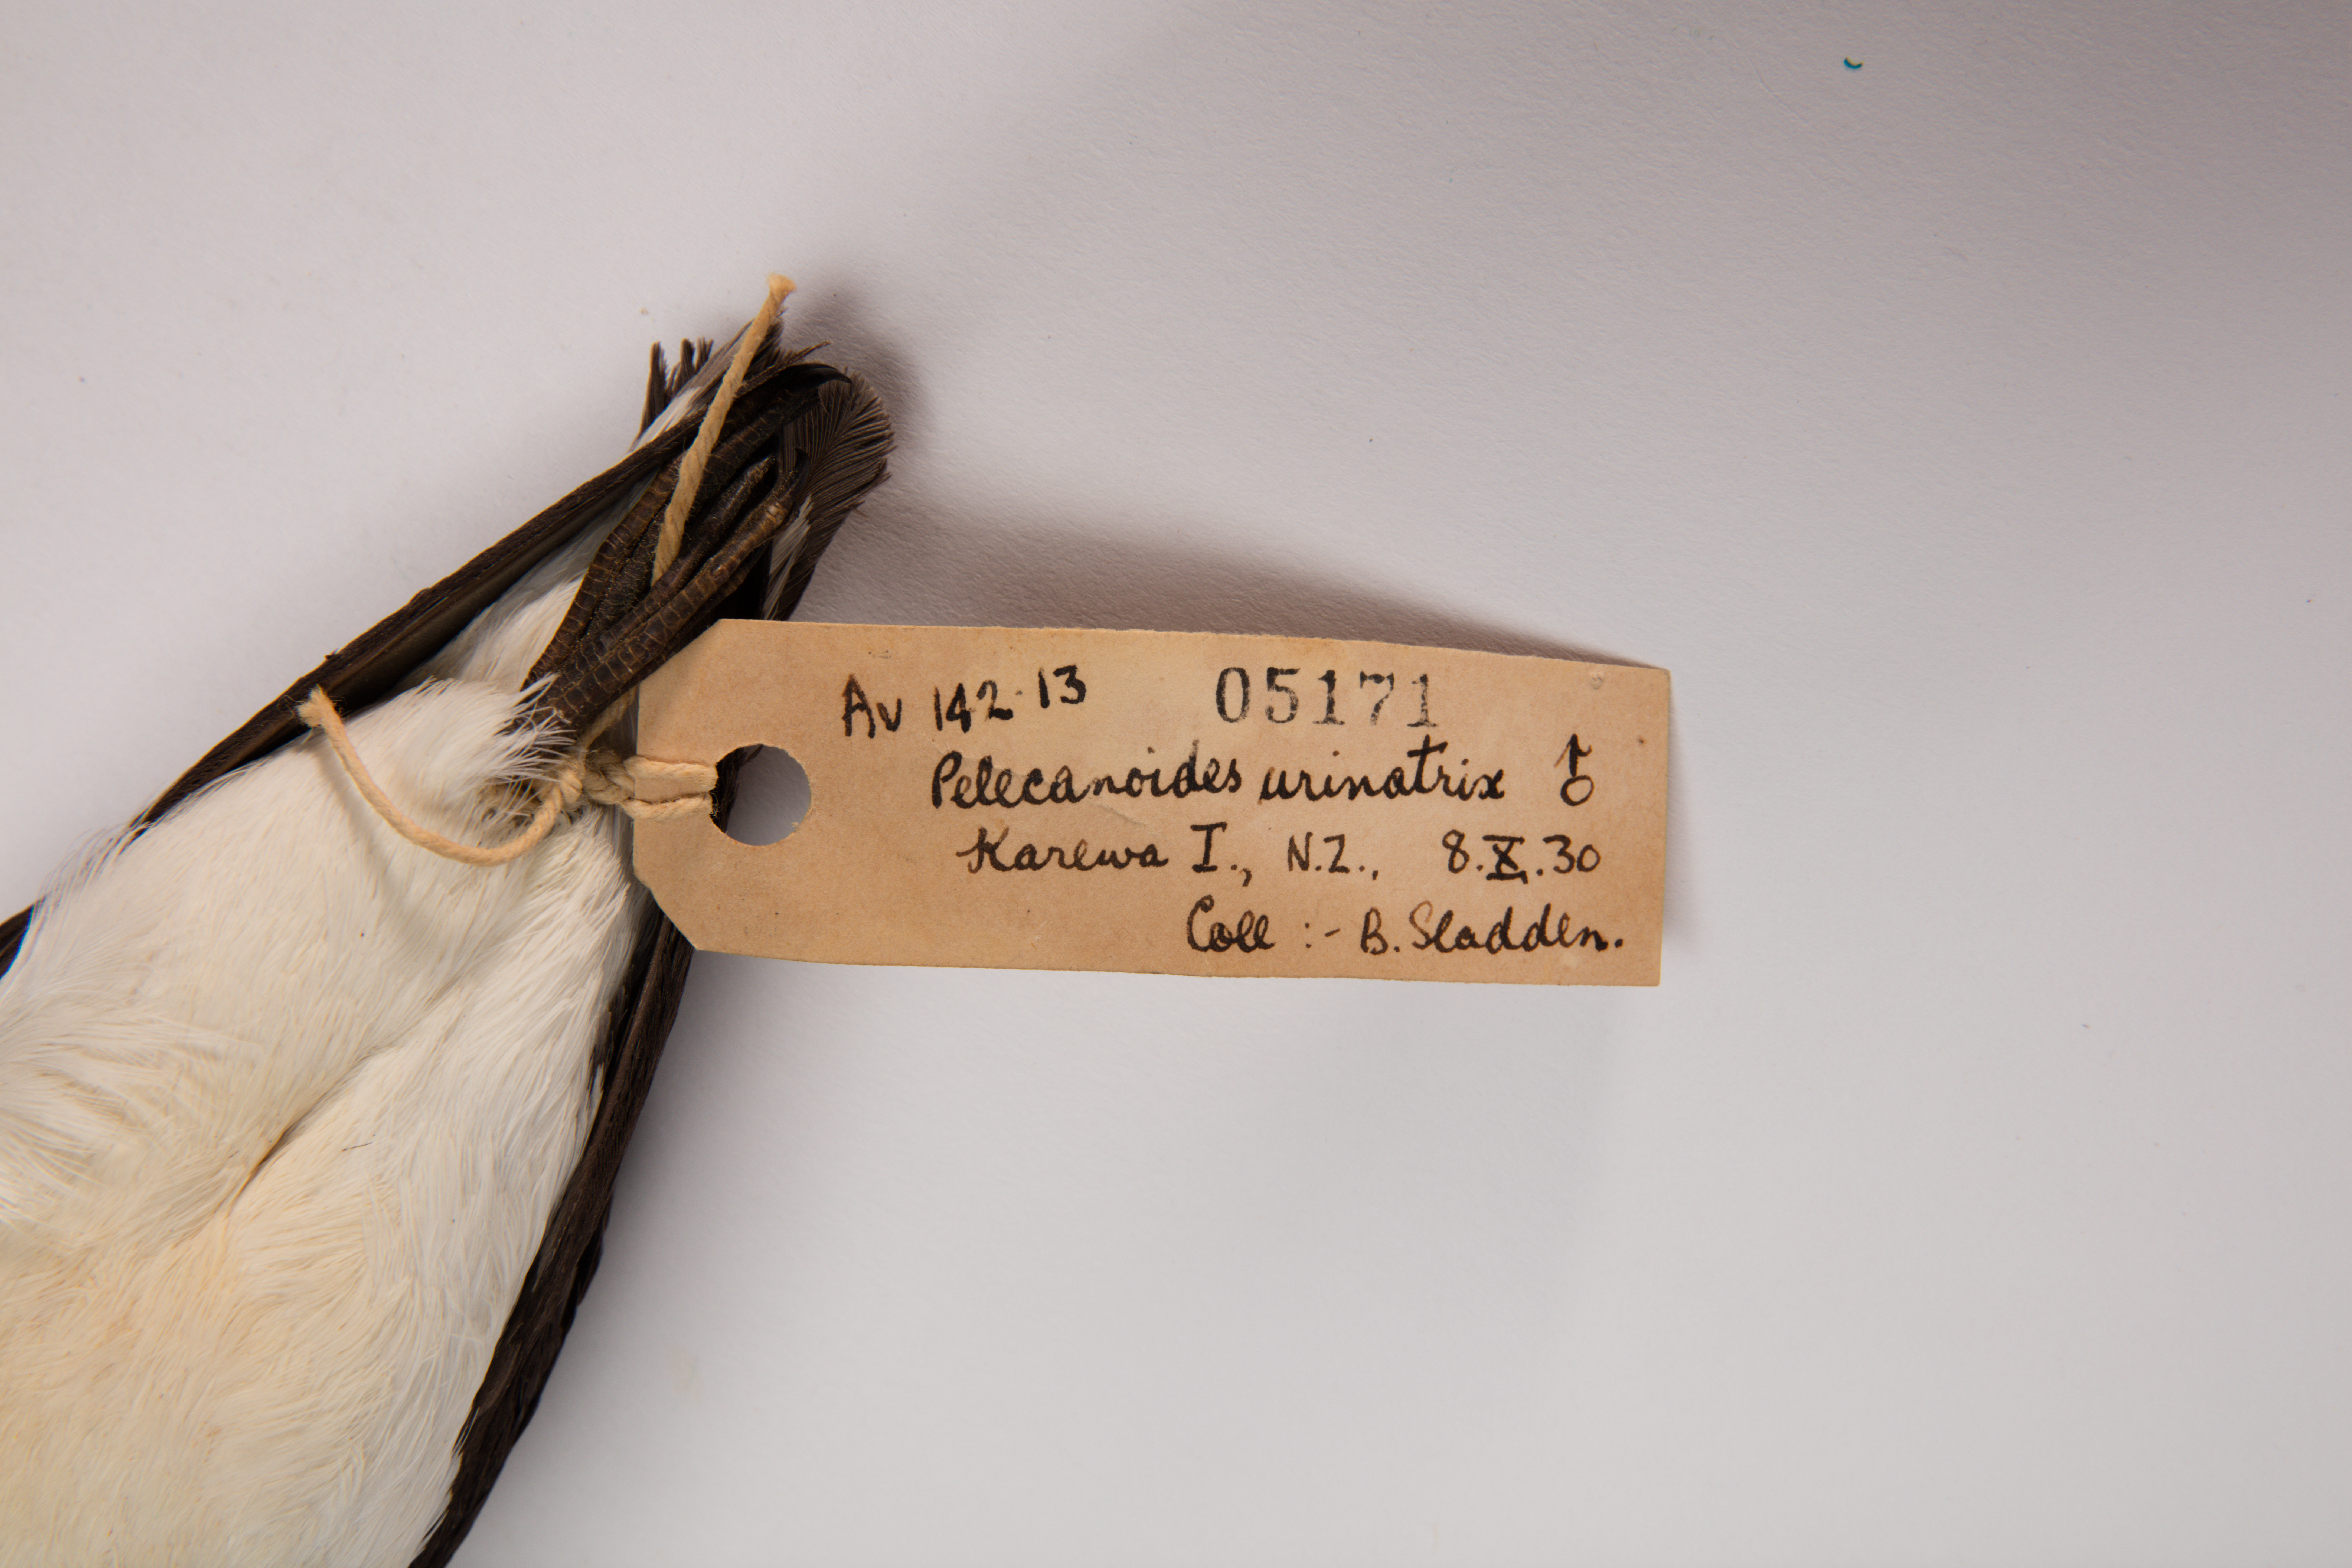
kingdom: Animalia
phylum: Chordata
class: Aves
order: Procellariiformes
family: Pelecanoididae
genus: Pelecanoides
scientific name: Pelecanoides urinatrix
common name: Common diving-petrel
